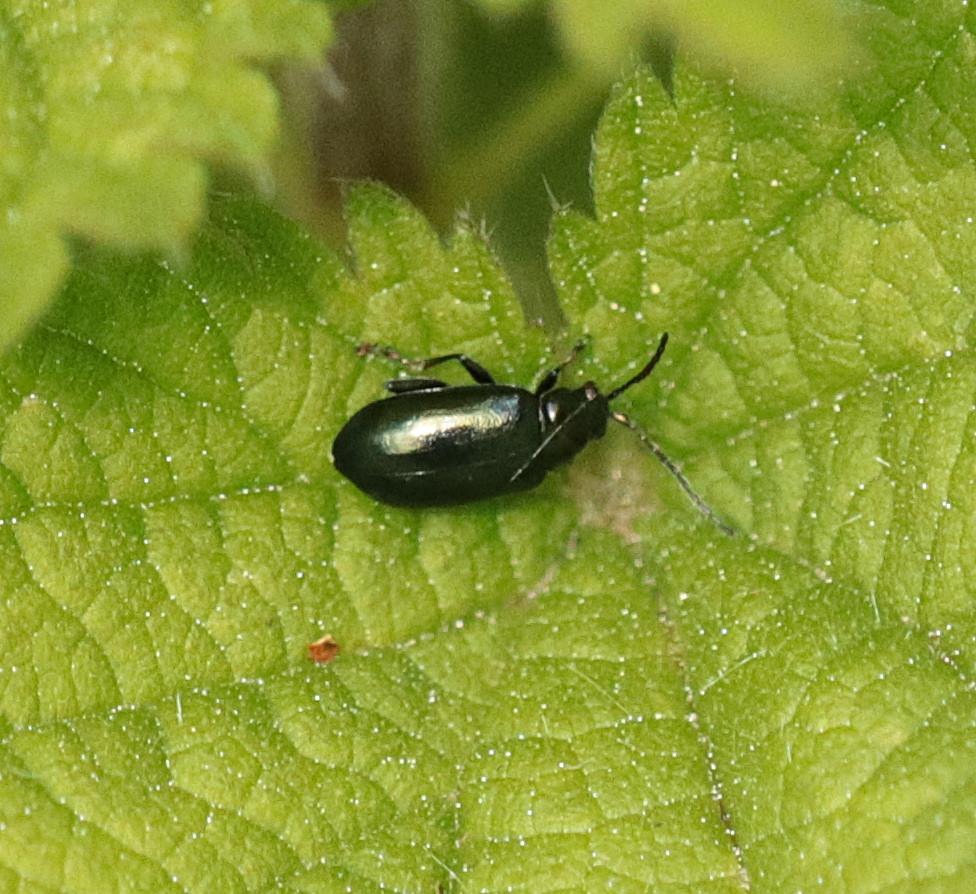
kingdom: Animalia
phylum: Arthropoda
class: Insecta
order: Coleoptera
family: Chrysomelidae
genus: Altica
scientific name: Altica
